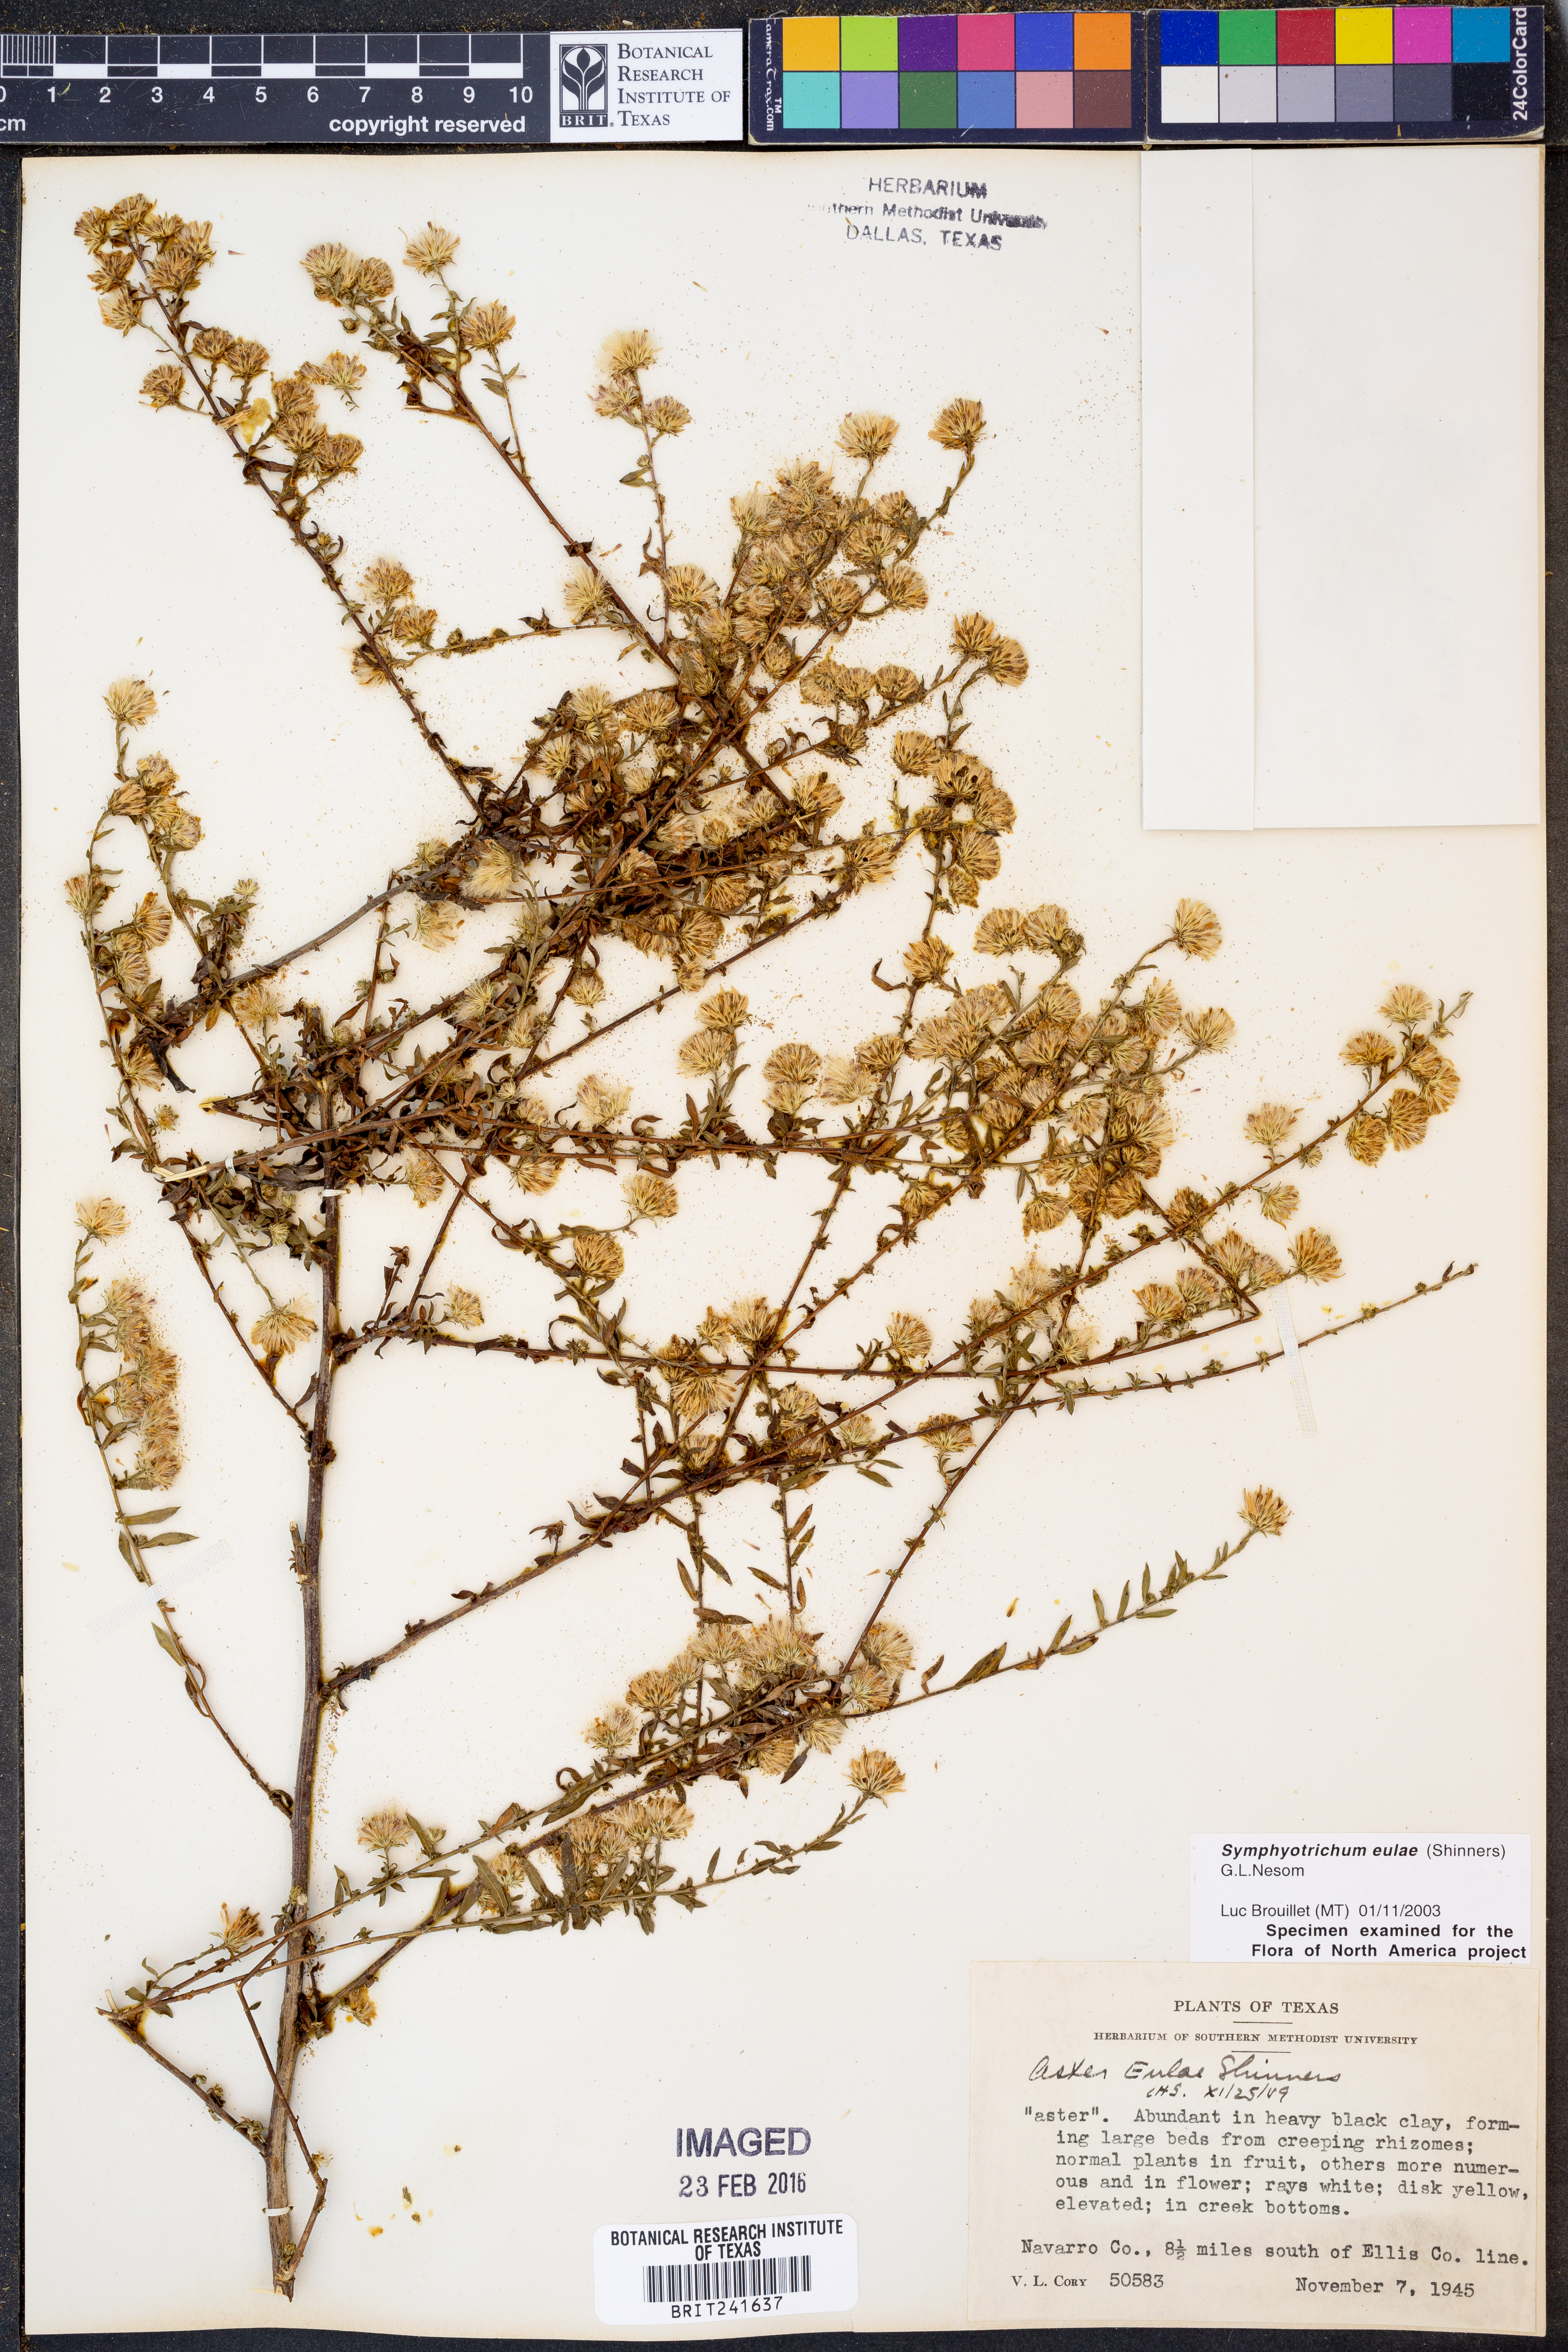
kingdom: Plantae
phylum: Tracheophyta
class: Magnoliopsida
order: Asterales
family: Asteraceae
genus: Symphyotrichum
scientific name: Symphyotrichum eulae
